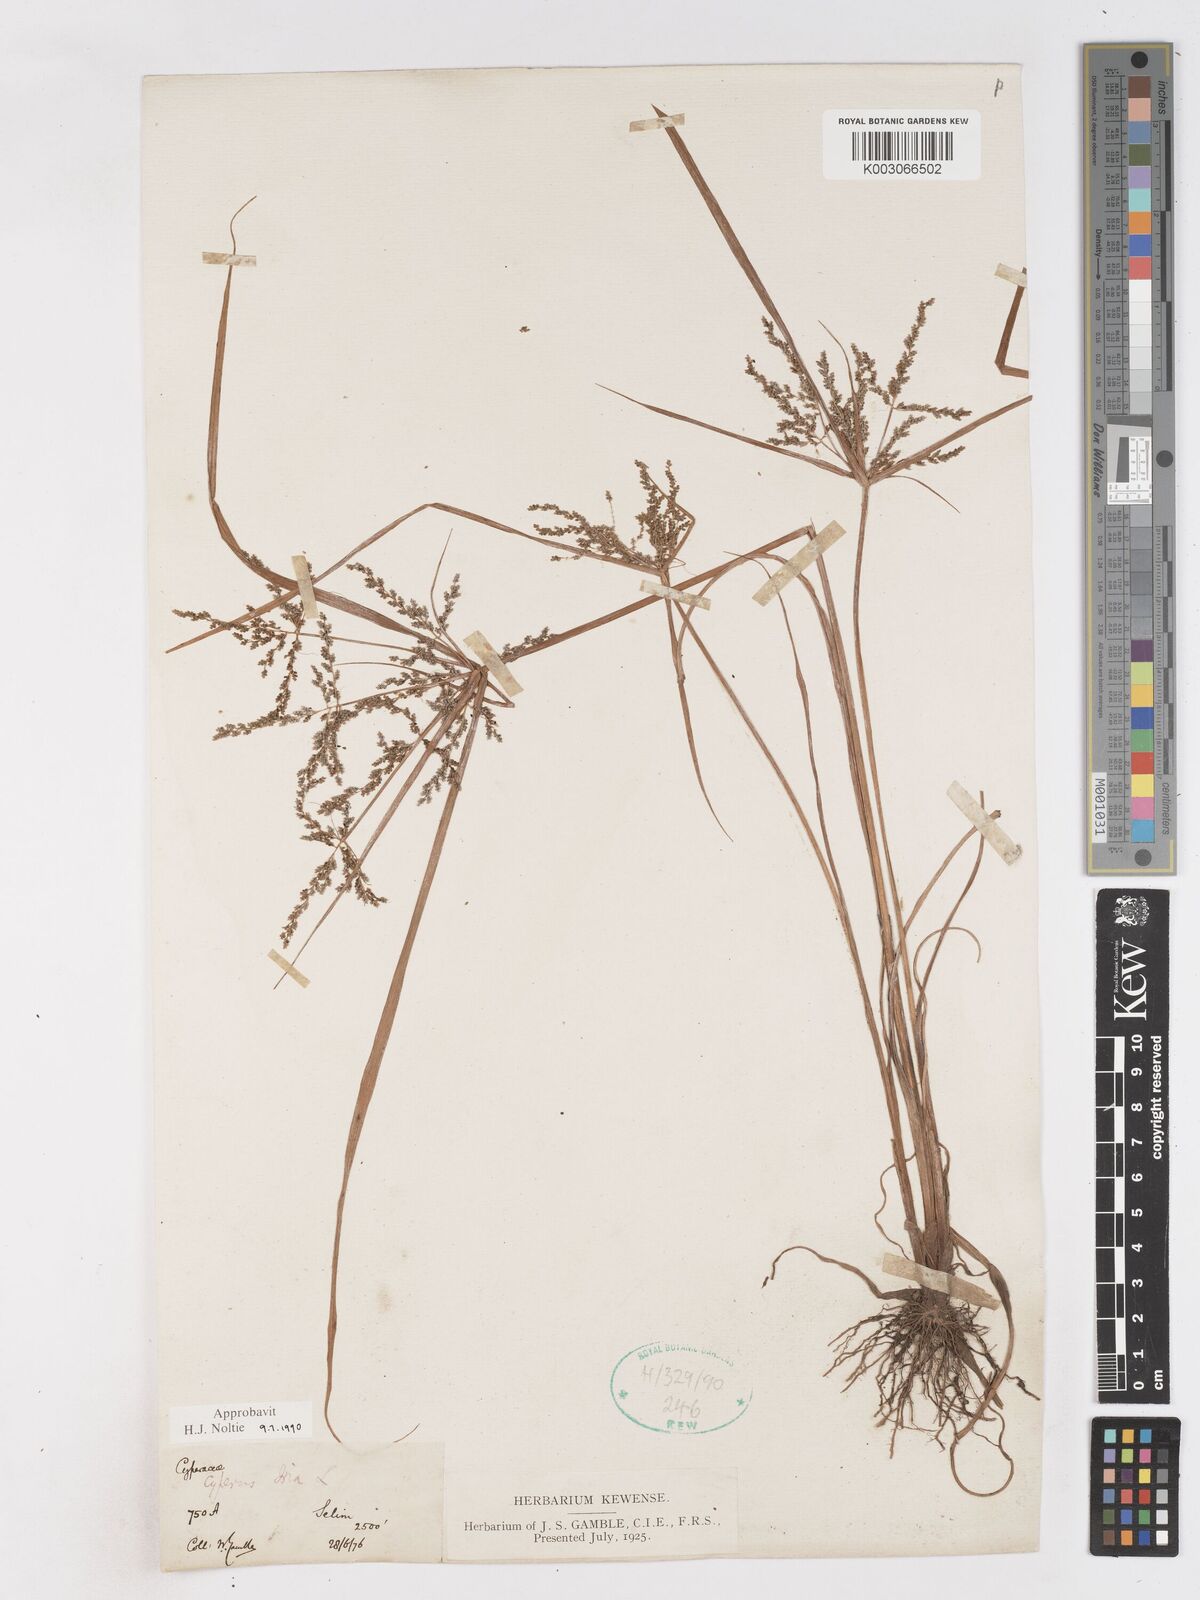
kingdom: Plantae
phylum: Tracheophyta
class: Liliopsida
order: Poales
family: Cyperaceae
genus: Cyperus
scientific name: Cyperus iria
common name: Ricefield flatsedge
